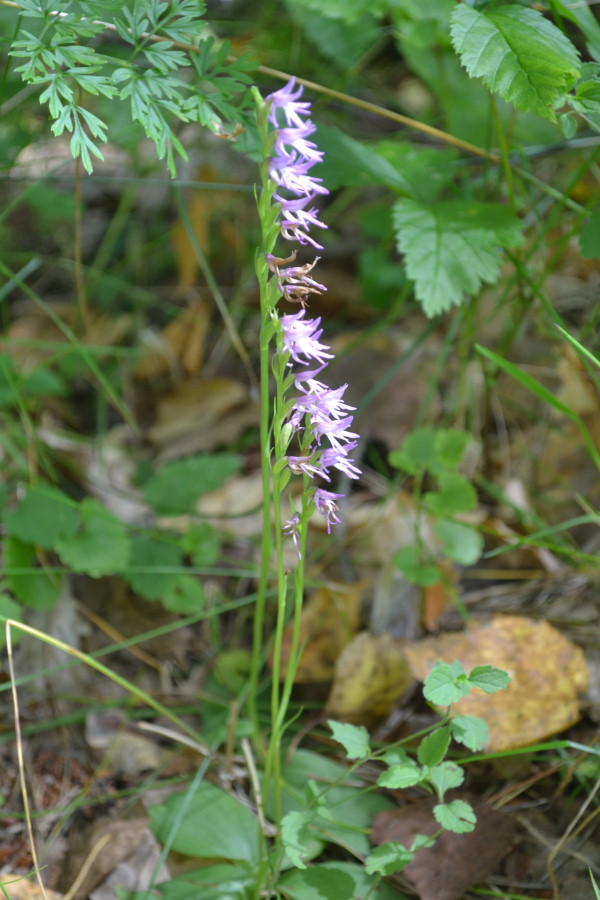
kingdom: Plantae
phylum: Tracheophyta
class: Liliopsida
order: Asparagales
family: Orchidaceae
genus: Hemipilia
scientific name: Hemipilia cucullata
